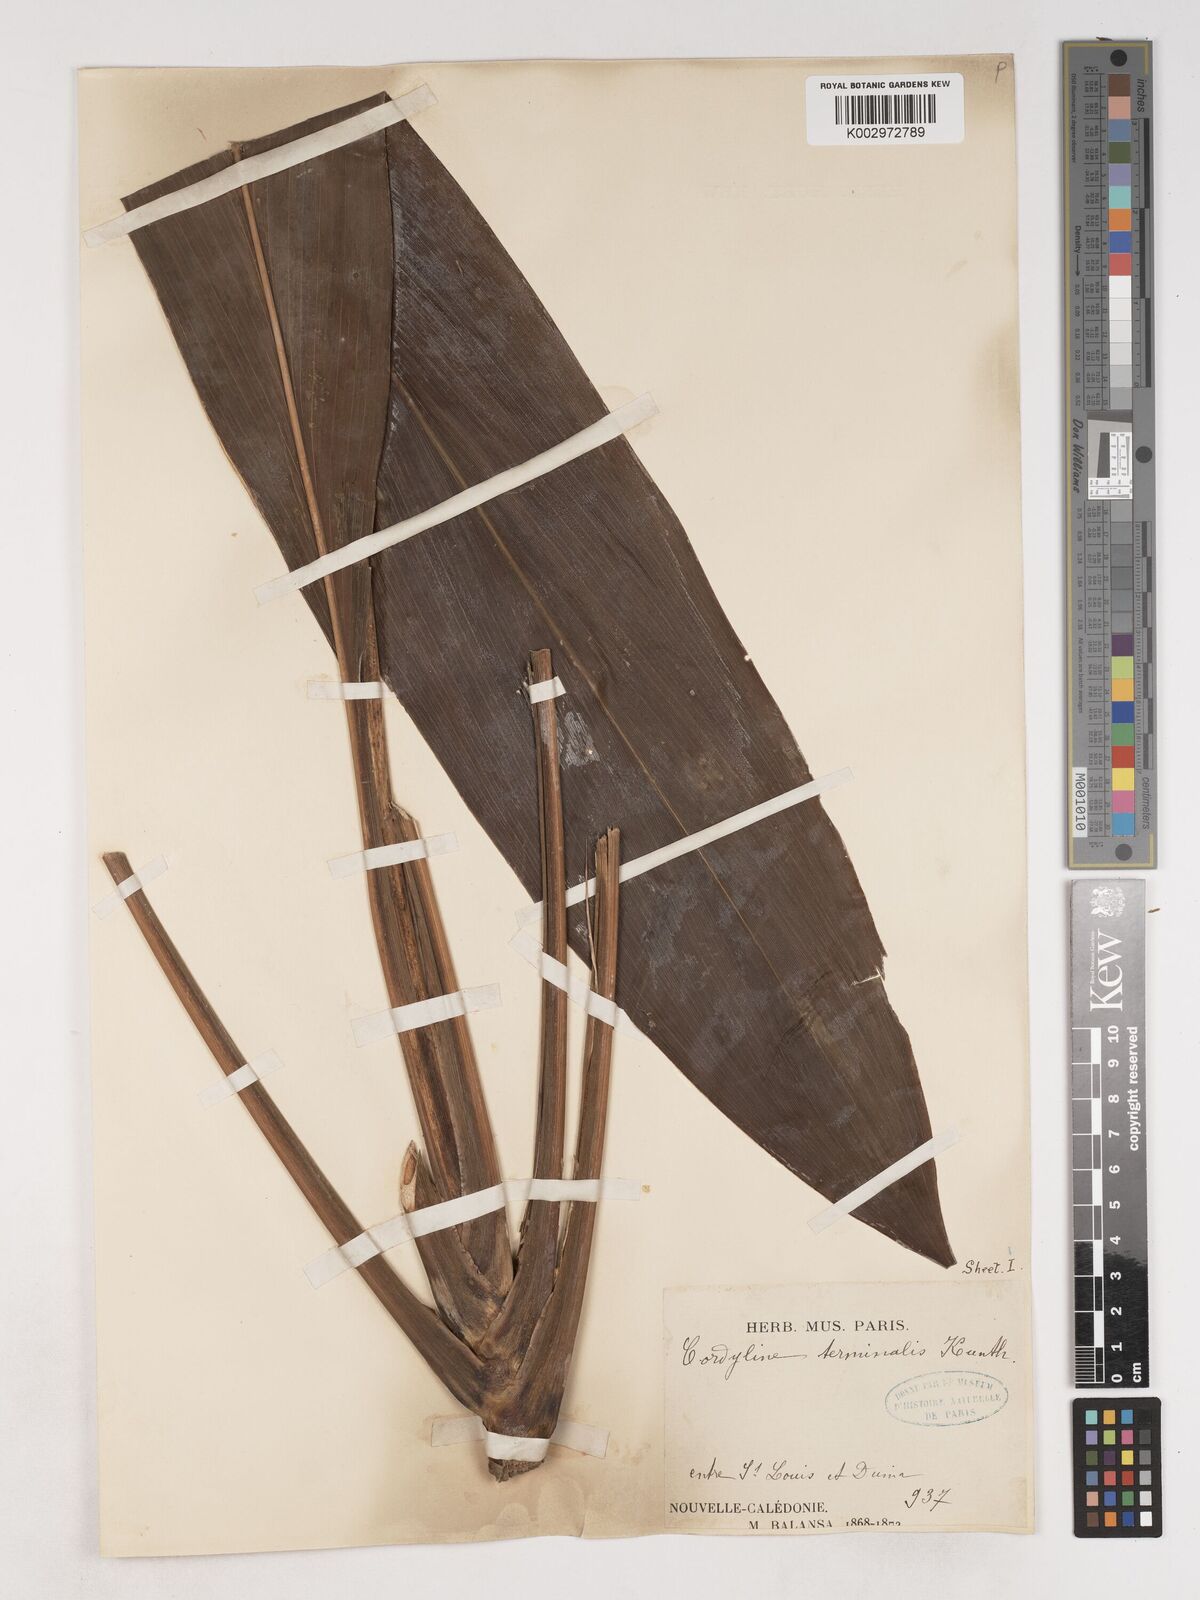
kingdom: Plantae
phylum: Tracheophyta
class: Liliopsida
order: Asparagales
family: Asparagaceae
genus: Cordyline
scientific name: Cordyline fruticosa
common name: Good-luck-plant
